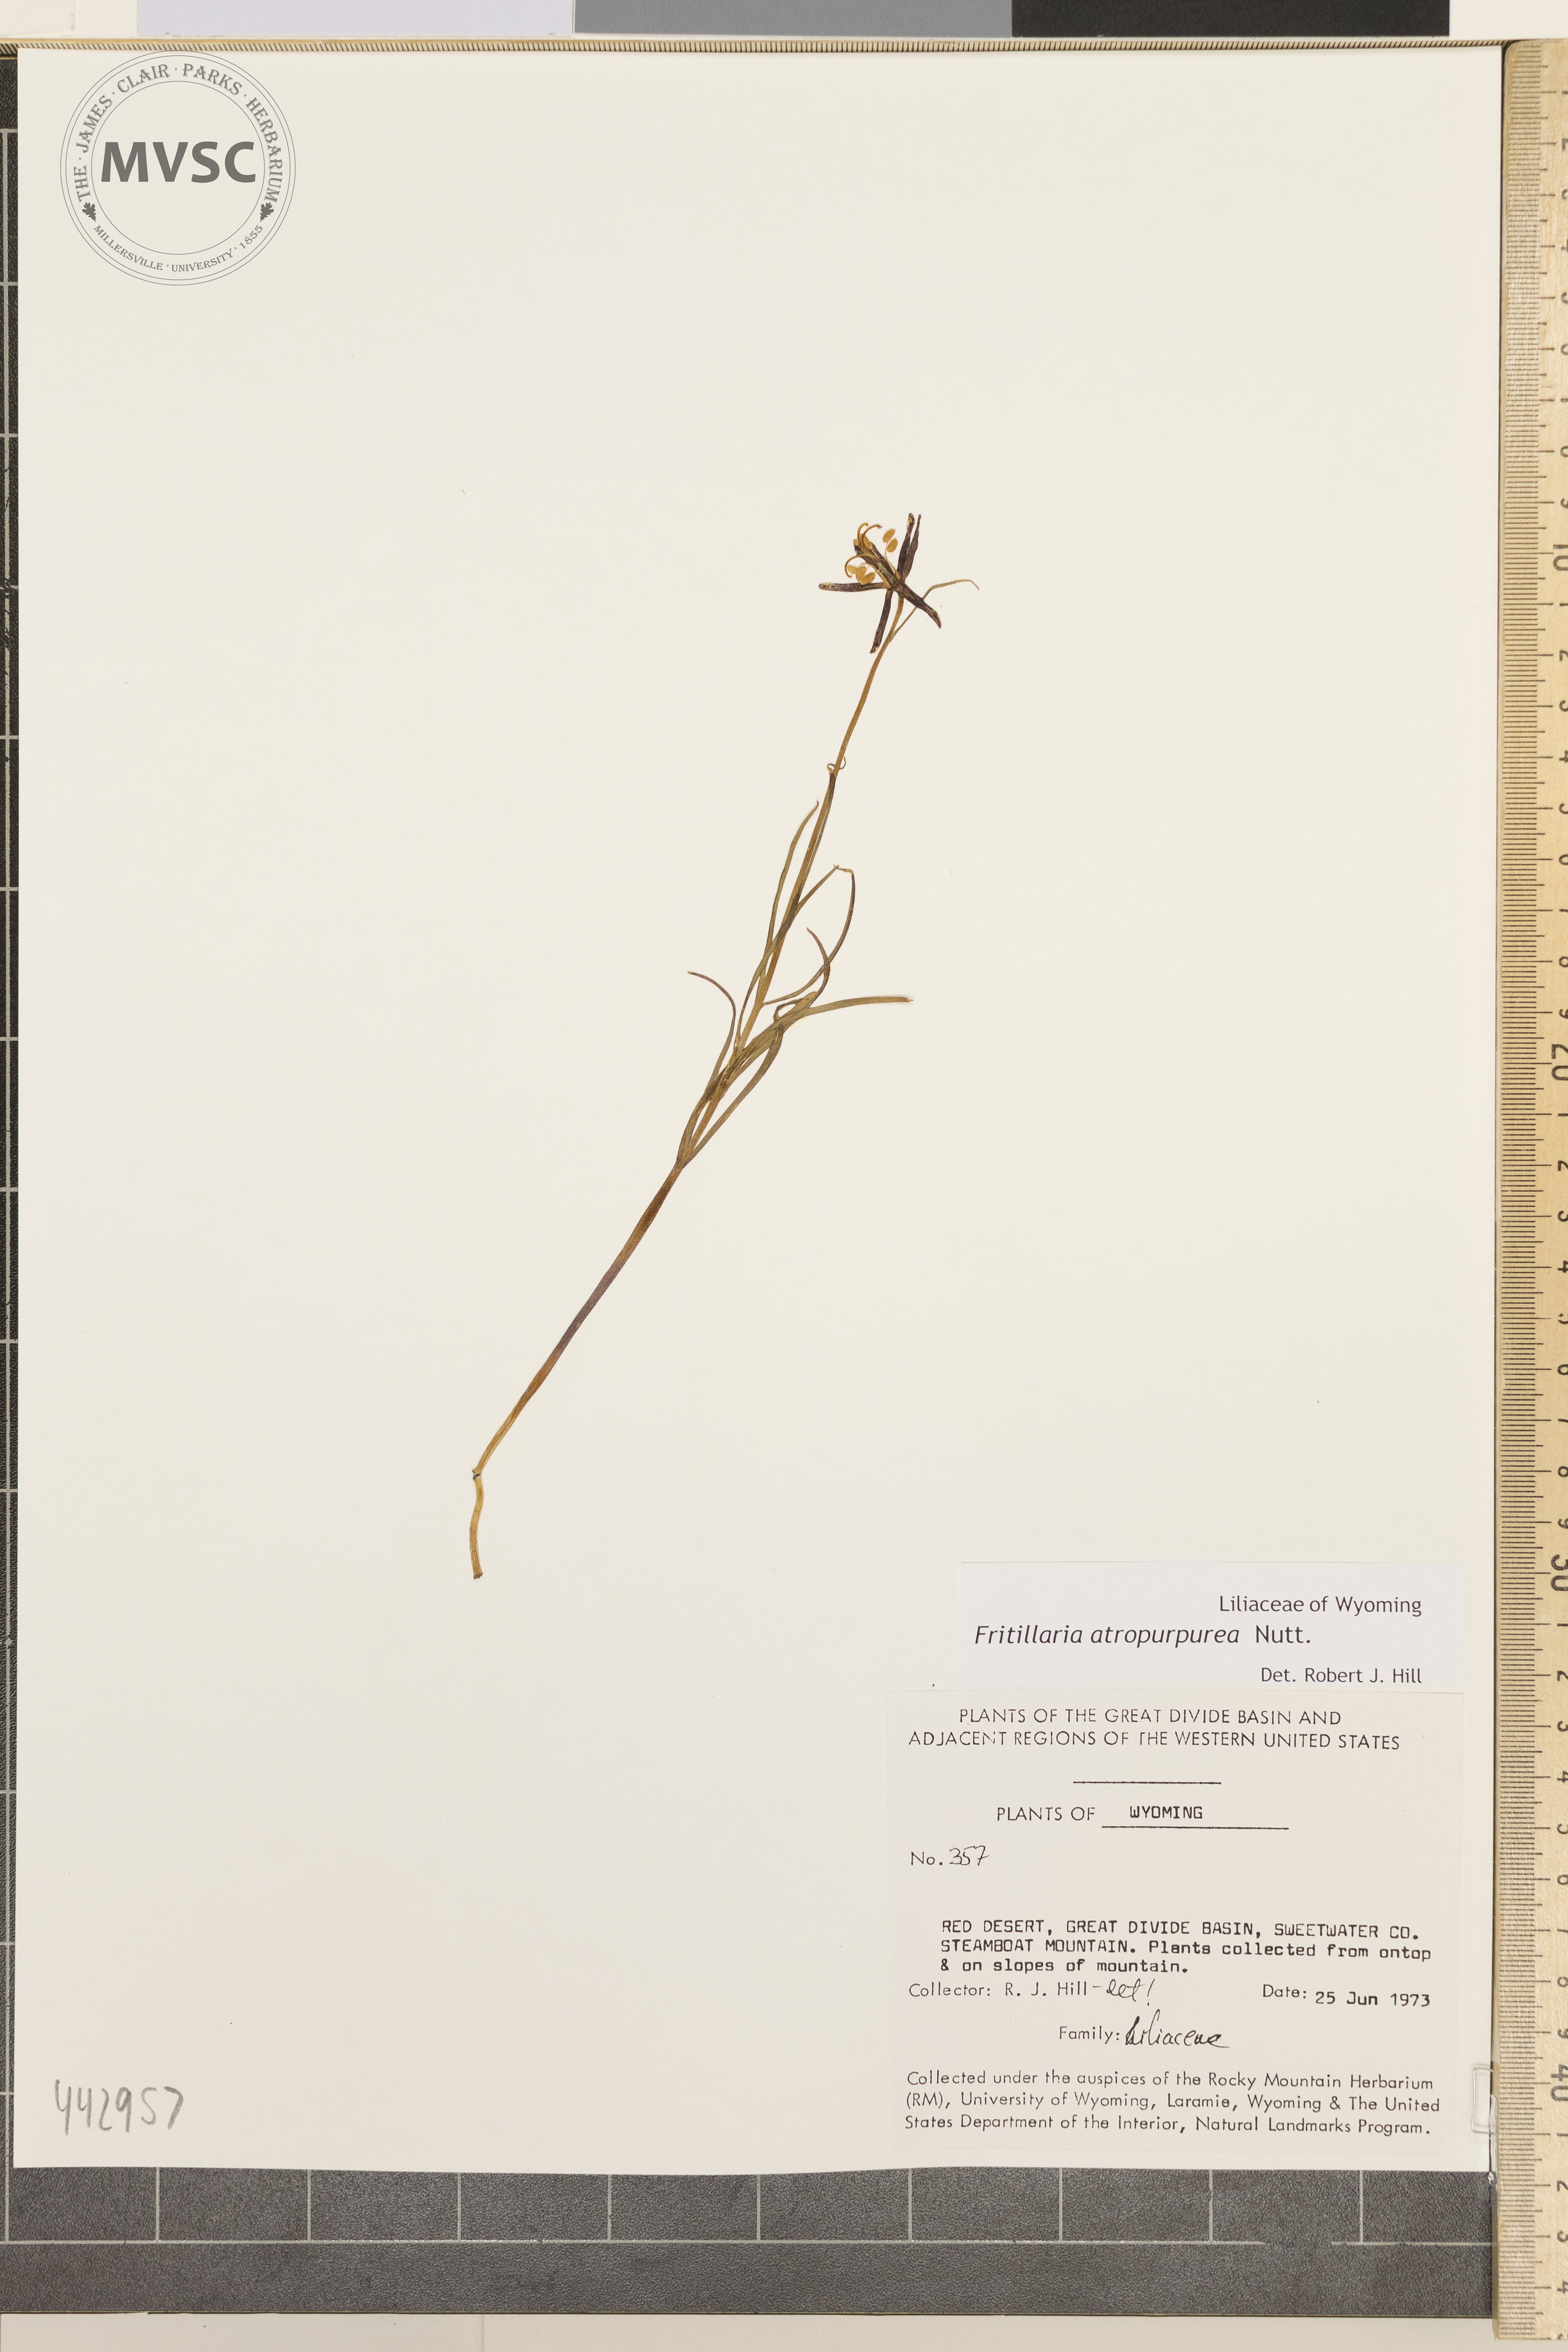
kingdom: Plantae
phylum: Tracheophyta
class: Liliopsida
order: Liliales
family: Liliaceae
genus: Fritillaria
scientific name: Fritillaria atropurpurea
